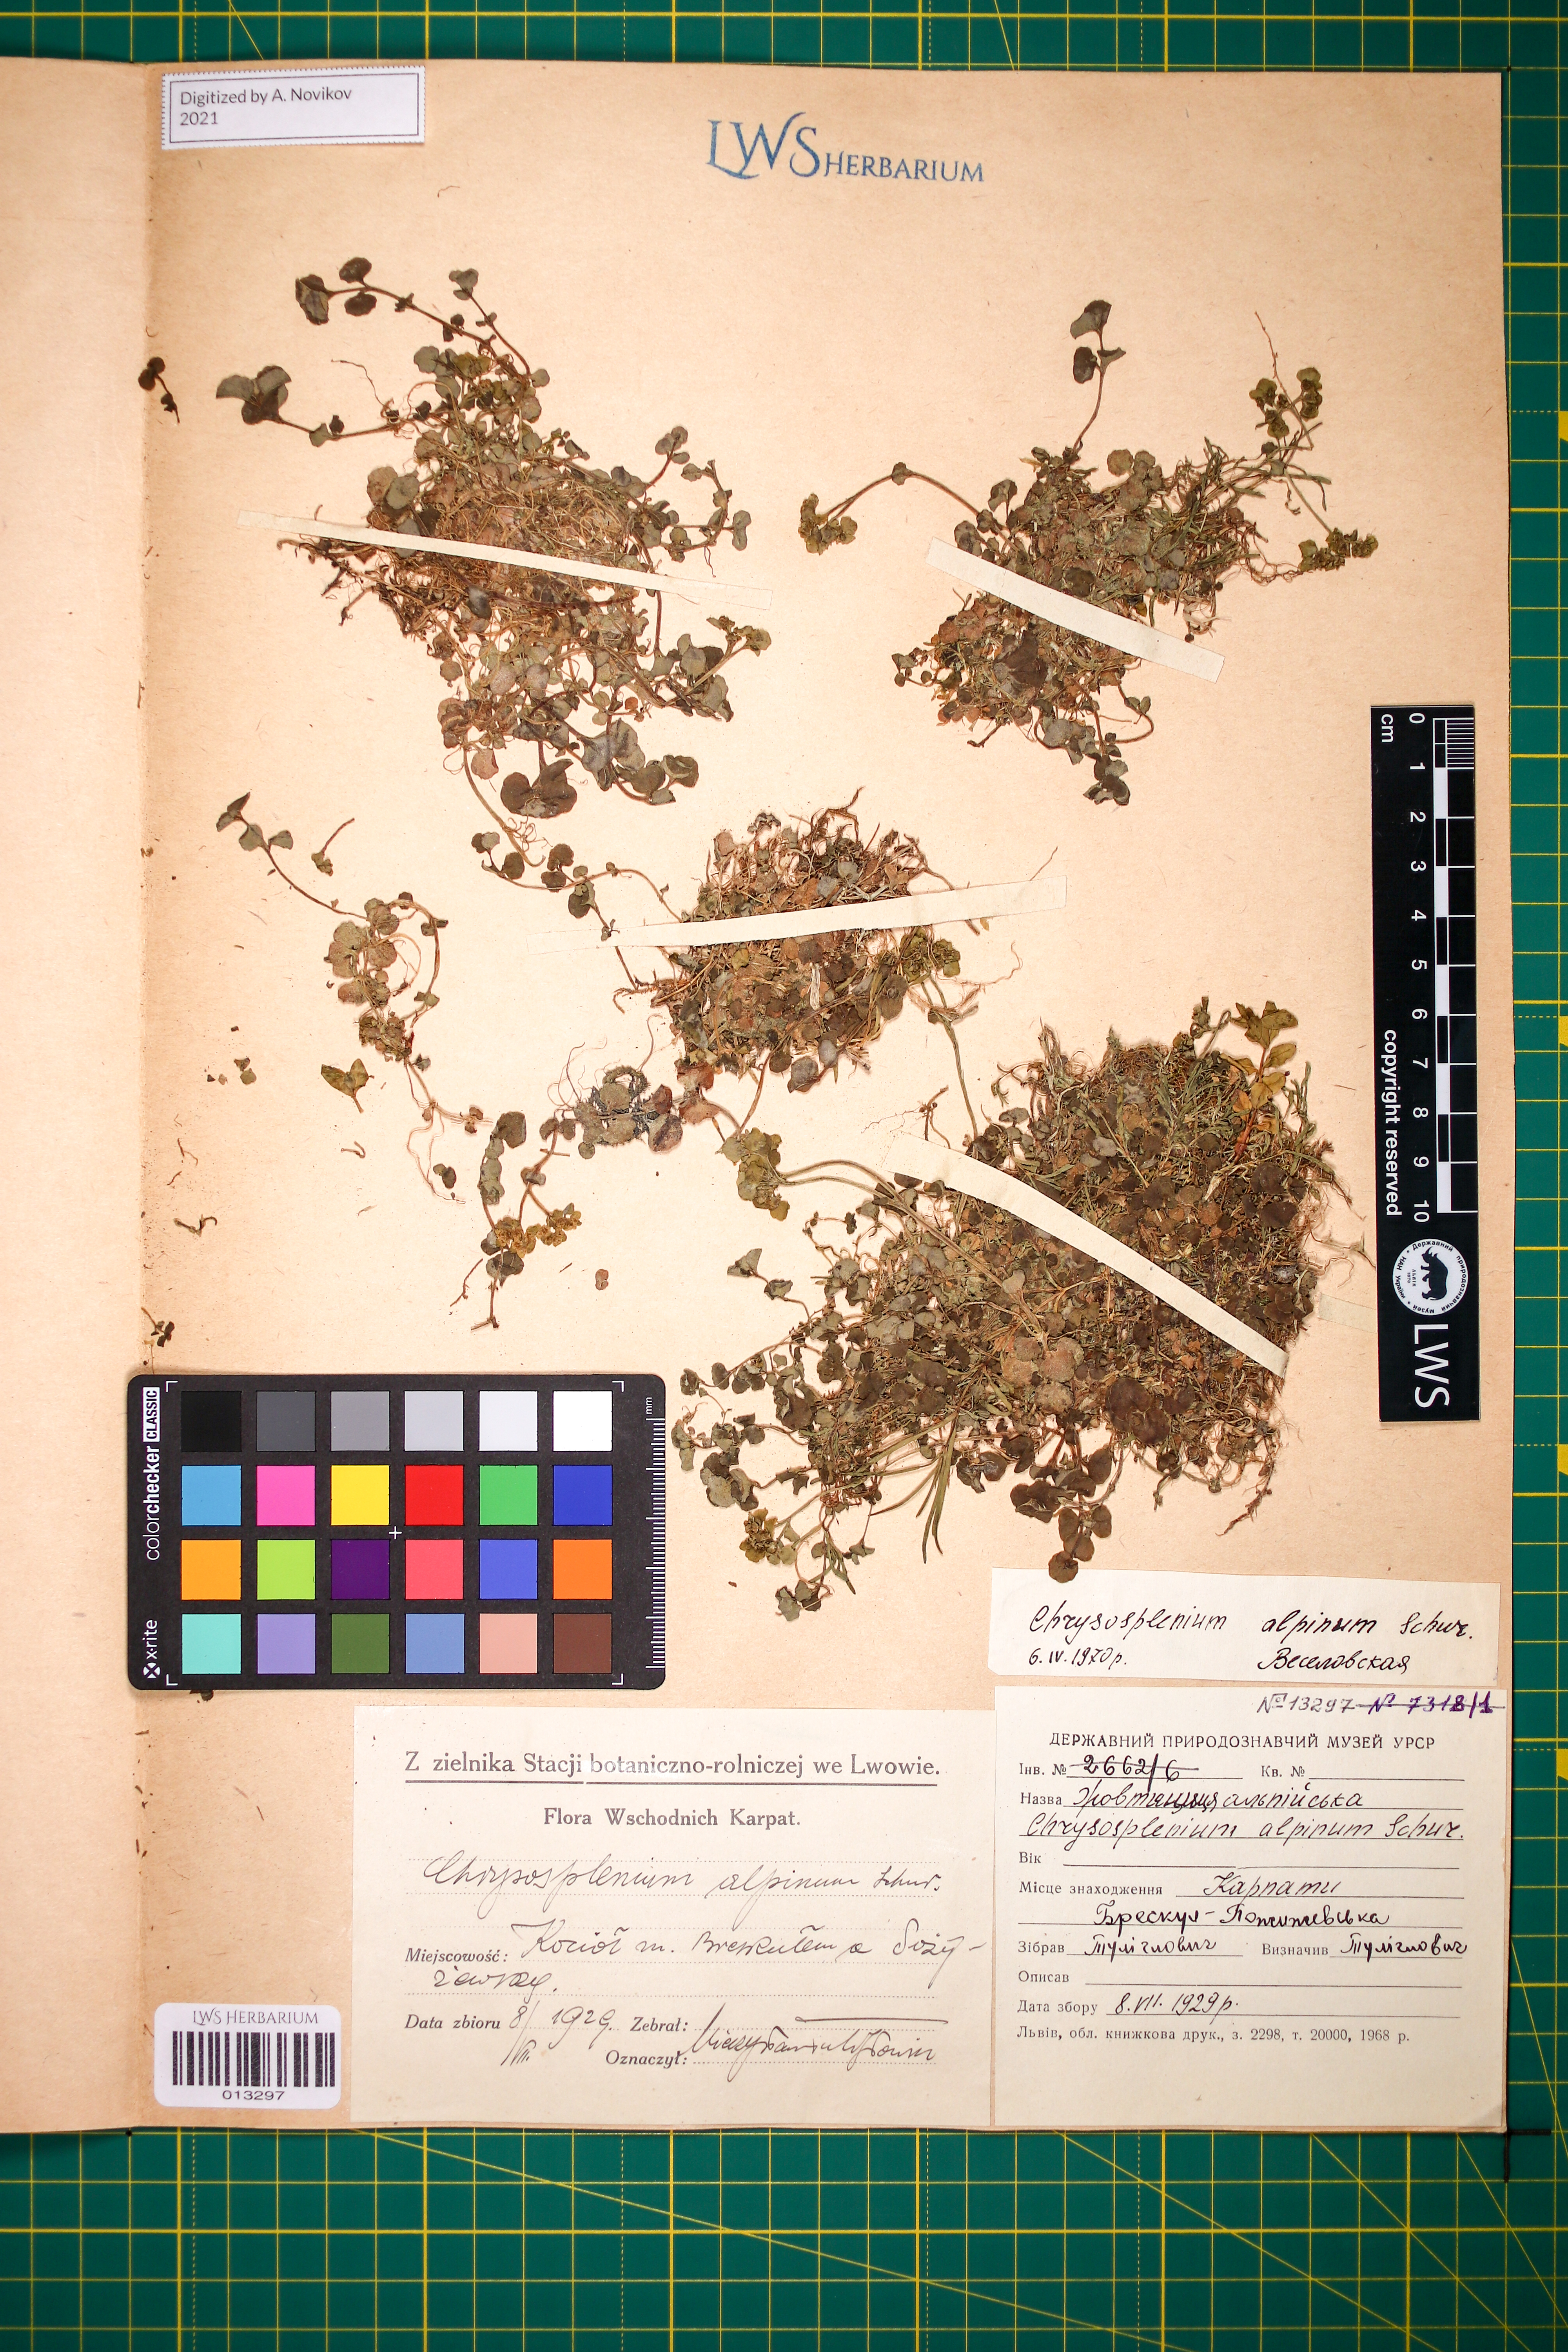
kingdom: Plantae
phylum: Tracheophyta
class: Magnoliopsida
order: Saxifragales
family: Saxifragaceae
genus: Chrysosplenium
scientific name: Chrysosplenium alpinum
